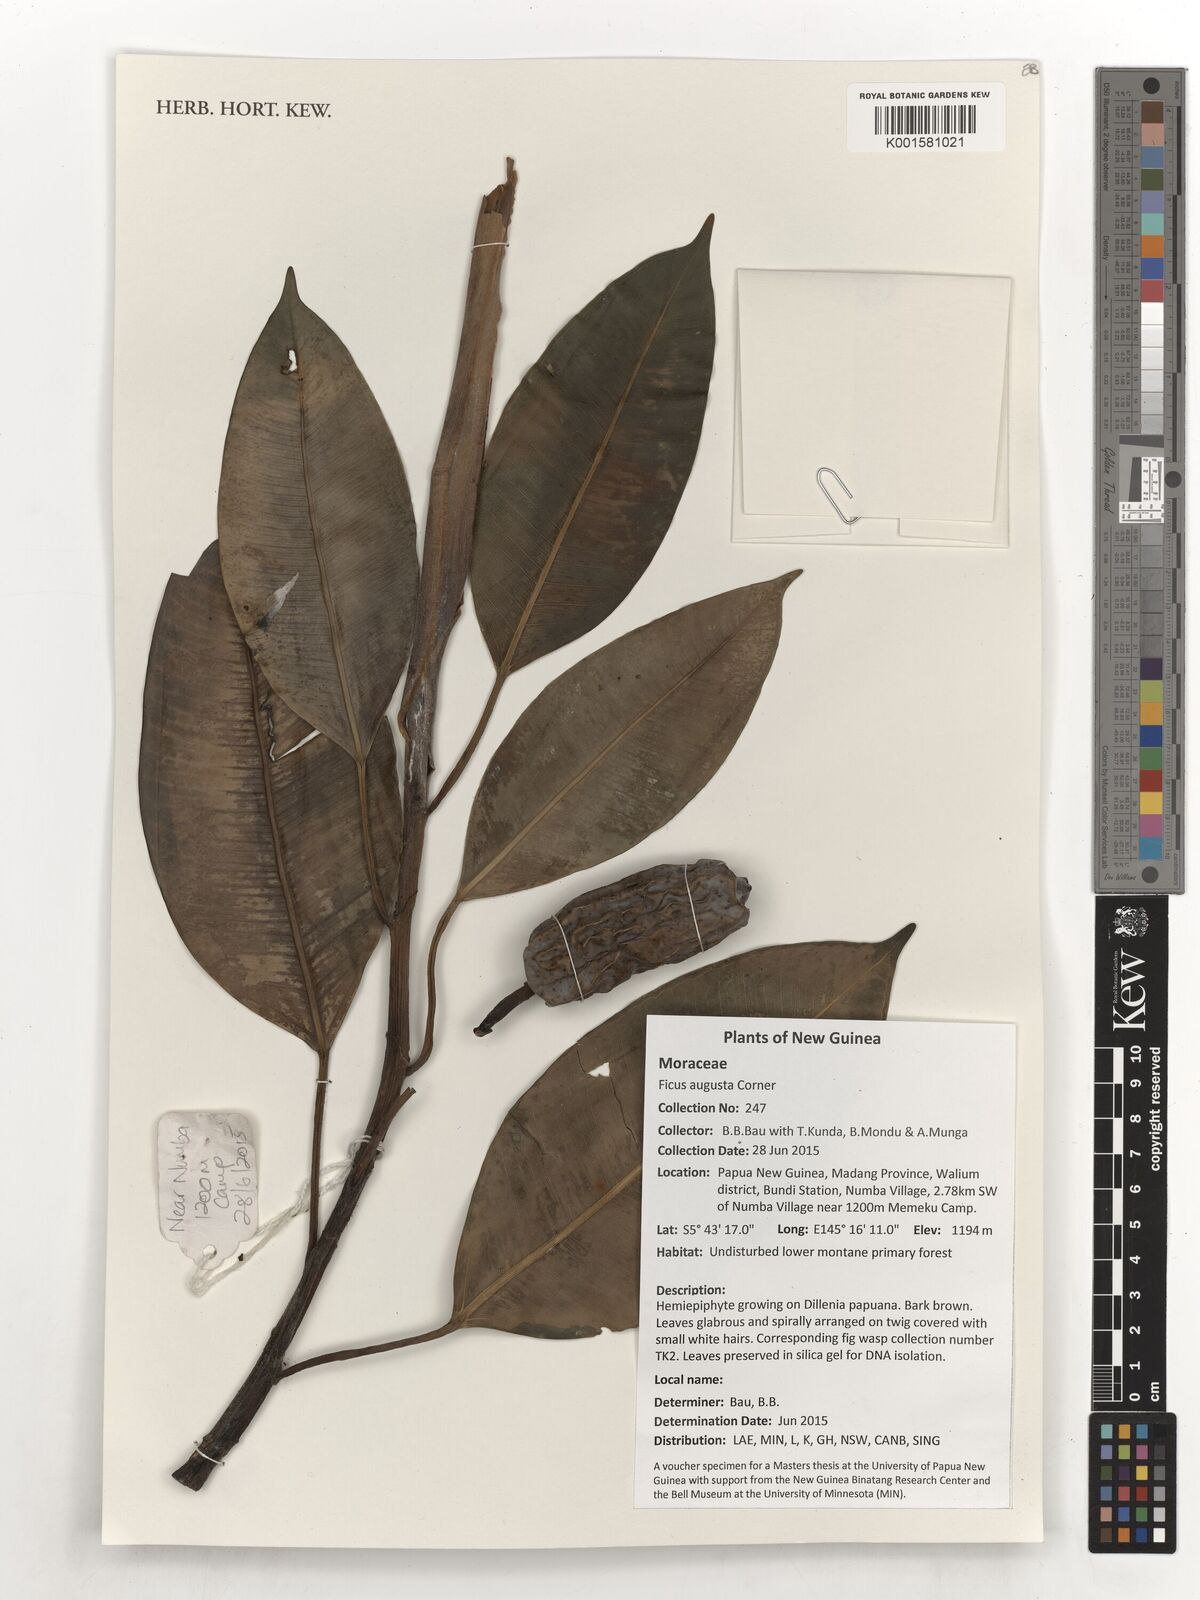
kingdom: Plantae
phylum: Tracheophyta
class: Magnoliopsida
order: Rosales
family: Moraceae
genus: Ficus
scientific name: Ficus hesperidiiformis
